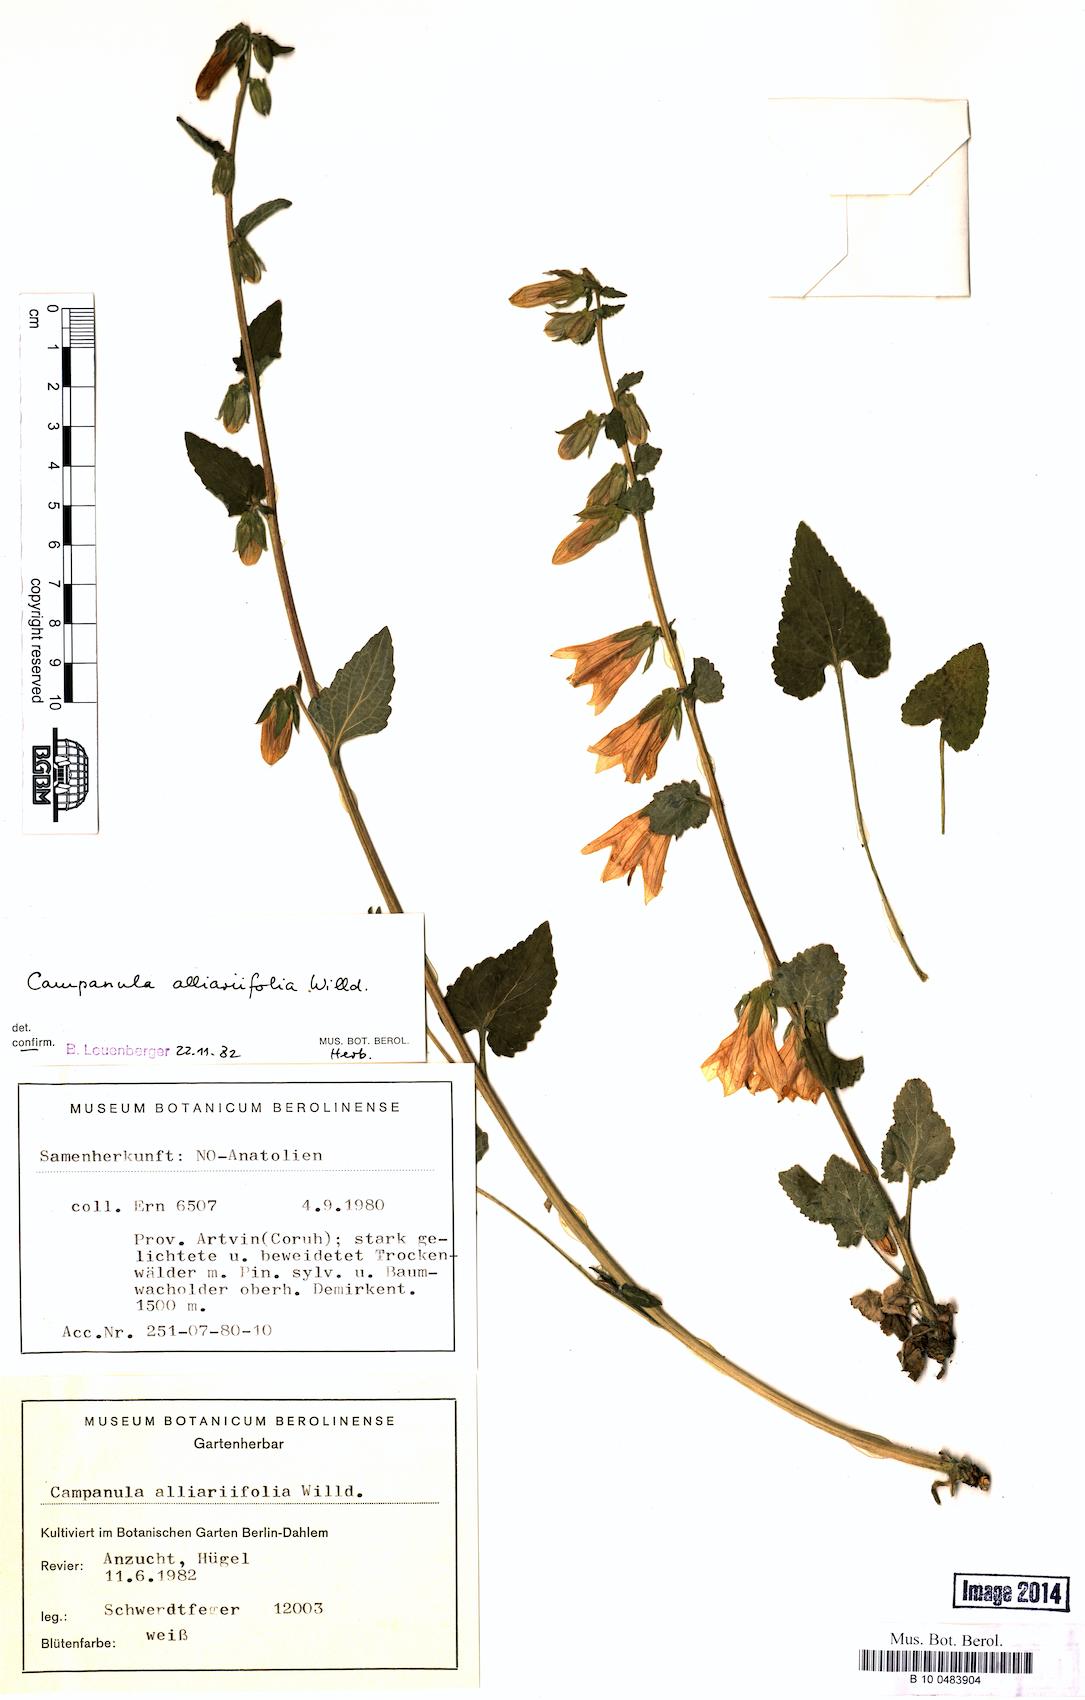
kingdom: Plantae
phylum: Tracheophyta
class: Magnoliopsida
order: Asterales
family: Campanulaceae
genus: Campanula
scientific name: Campanula alliariifolia
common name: Cornish bellflower
